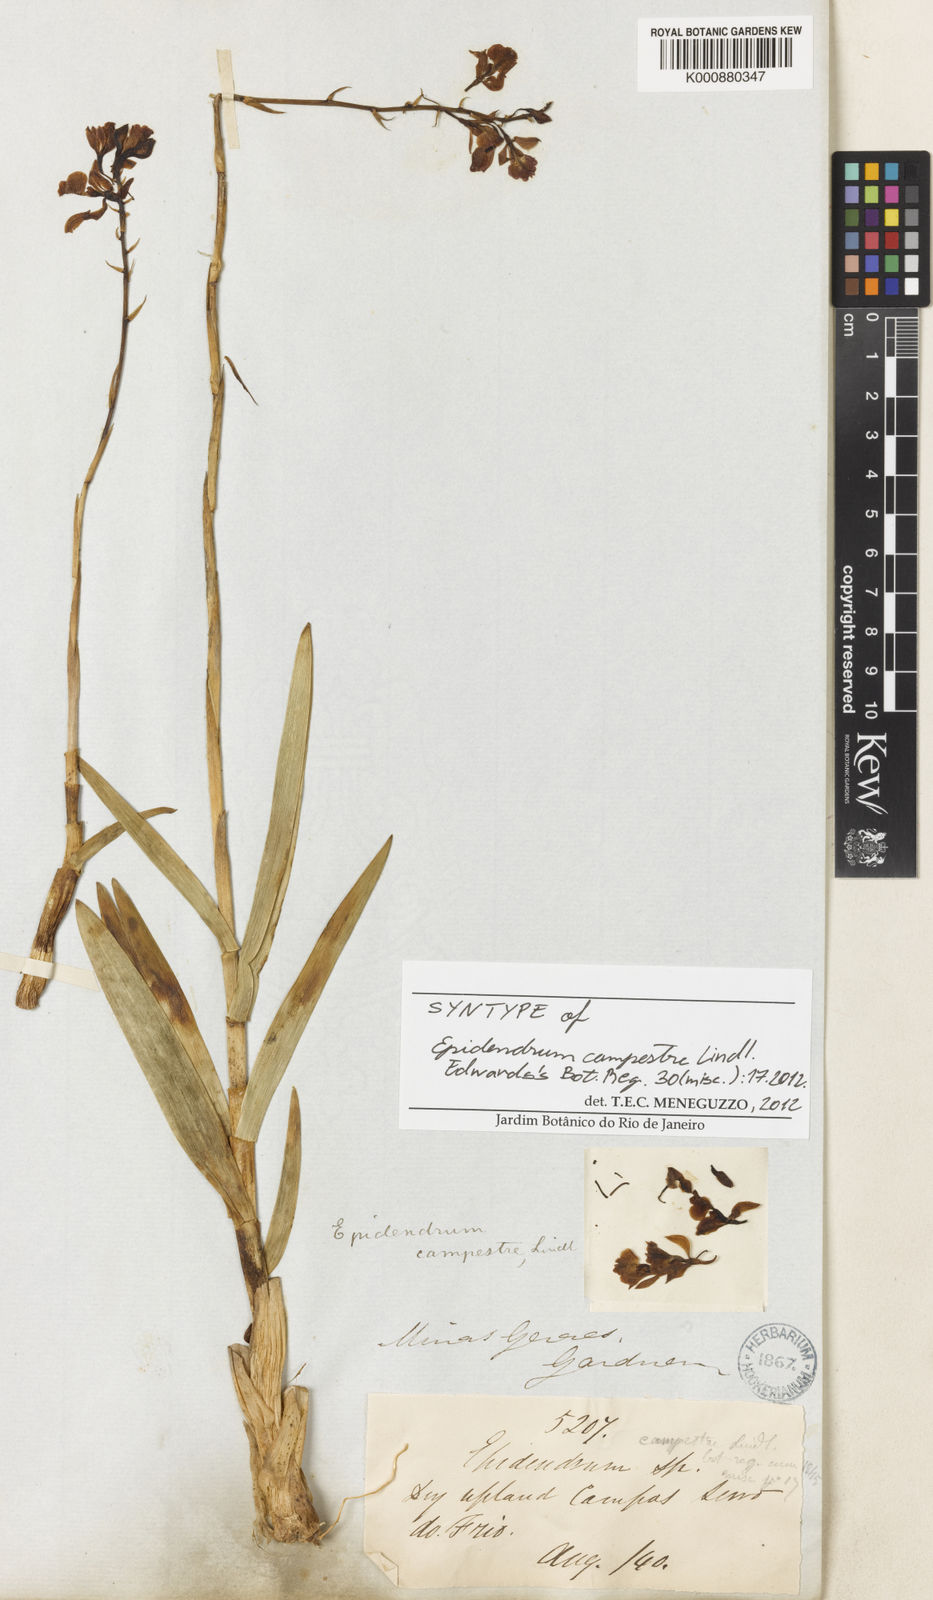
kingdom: Plantae
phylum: Tracheophyta
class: Liliopsida
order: Asparagales
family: Orchidaceae
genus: Epidendrum
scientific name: Epidendrum campestre
